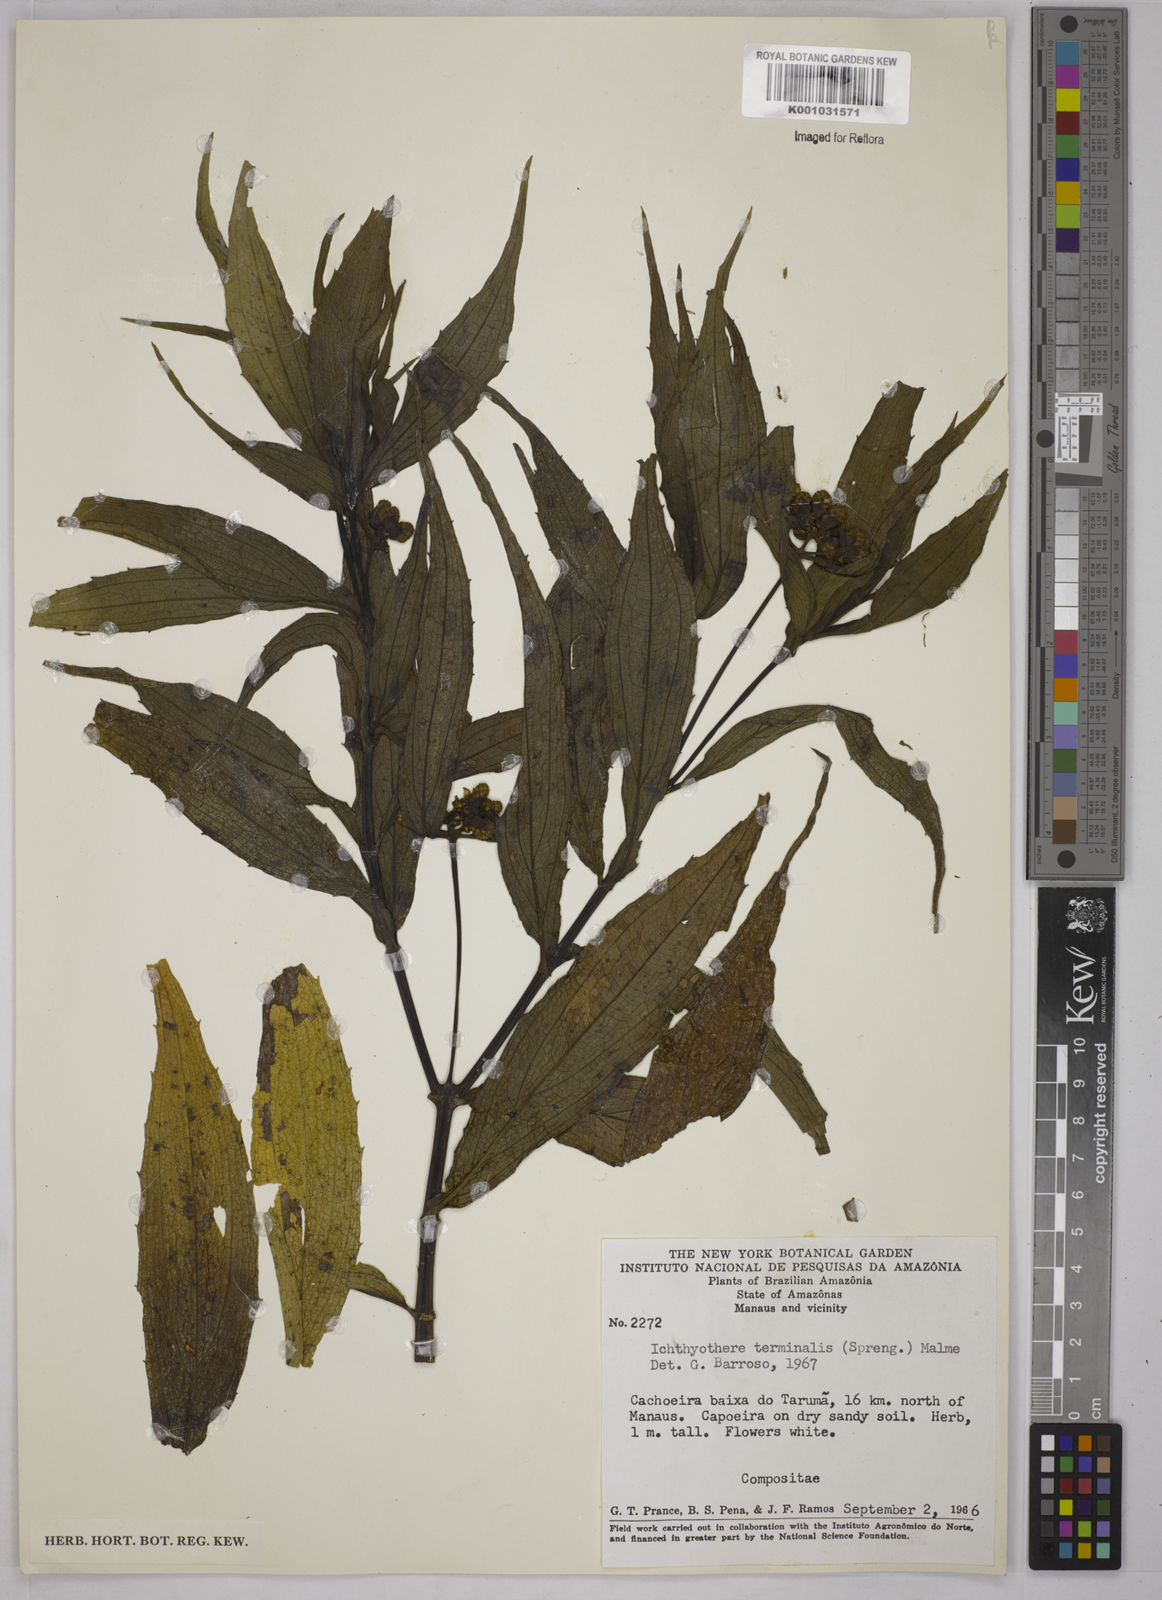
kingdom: Plantae
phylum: Tracheophyta
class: Magnoliopsida
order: Asterales
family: Asteraceae
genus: Ichthyothere
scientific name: Ichthyothere cunabi
